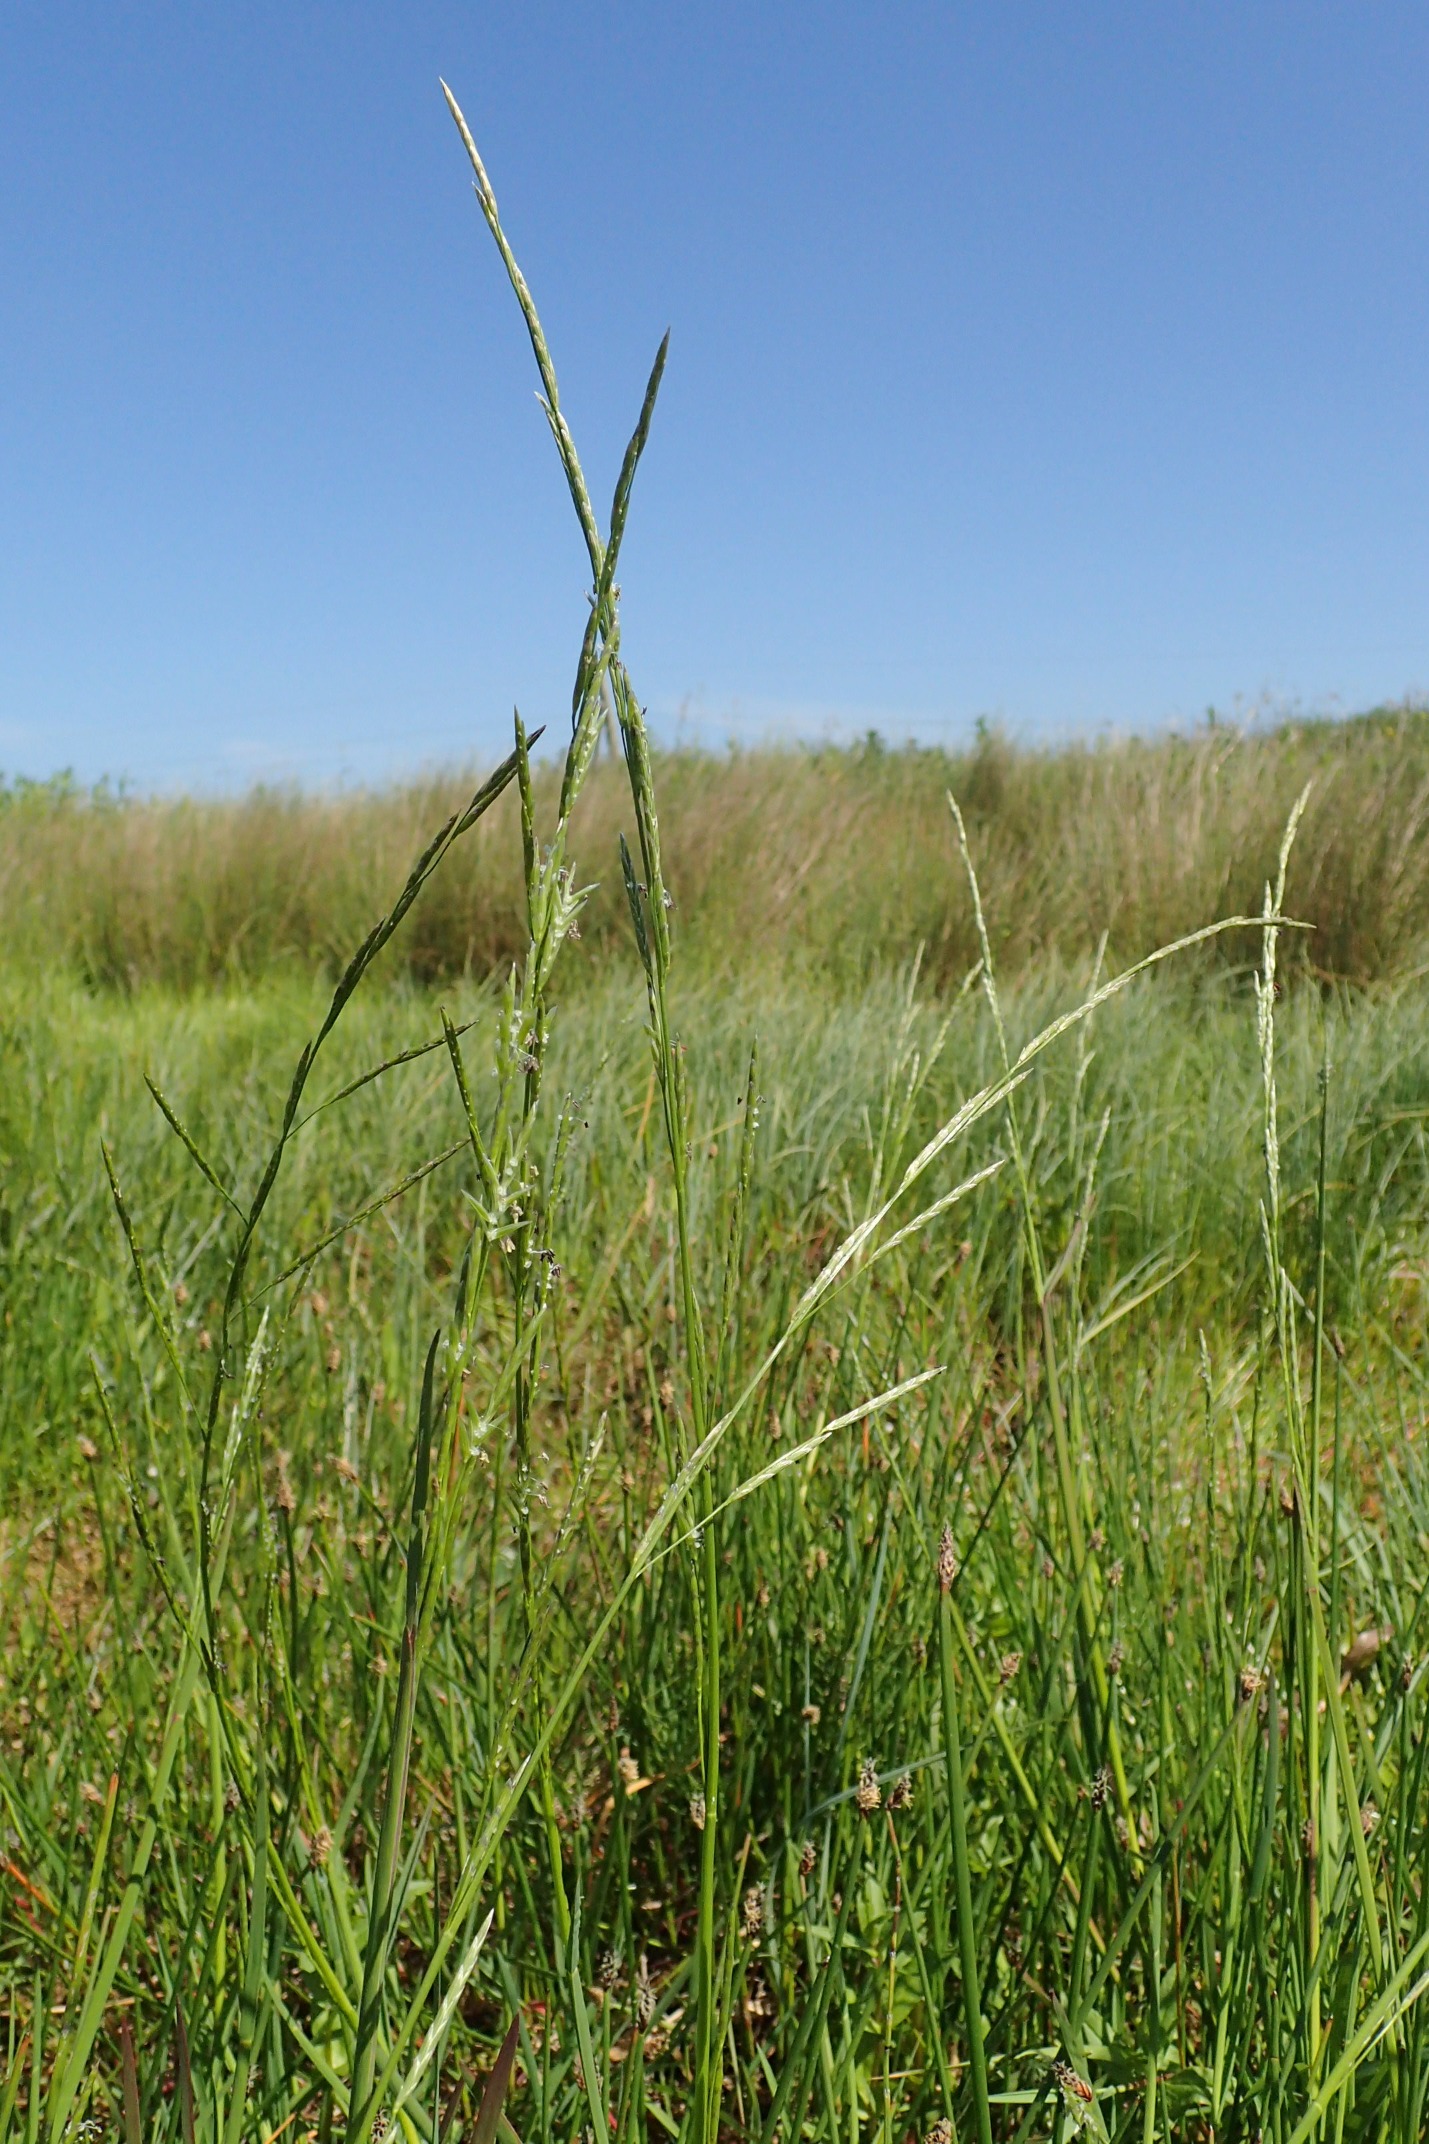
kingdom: Plantae
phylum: Tracheophyta
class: Liliopsida
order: Poales
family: Poaceae
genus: Glyceria
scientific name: Glyceria fluitans
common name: Manna-sødgræs
